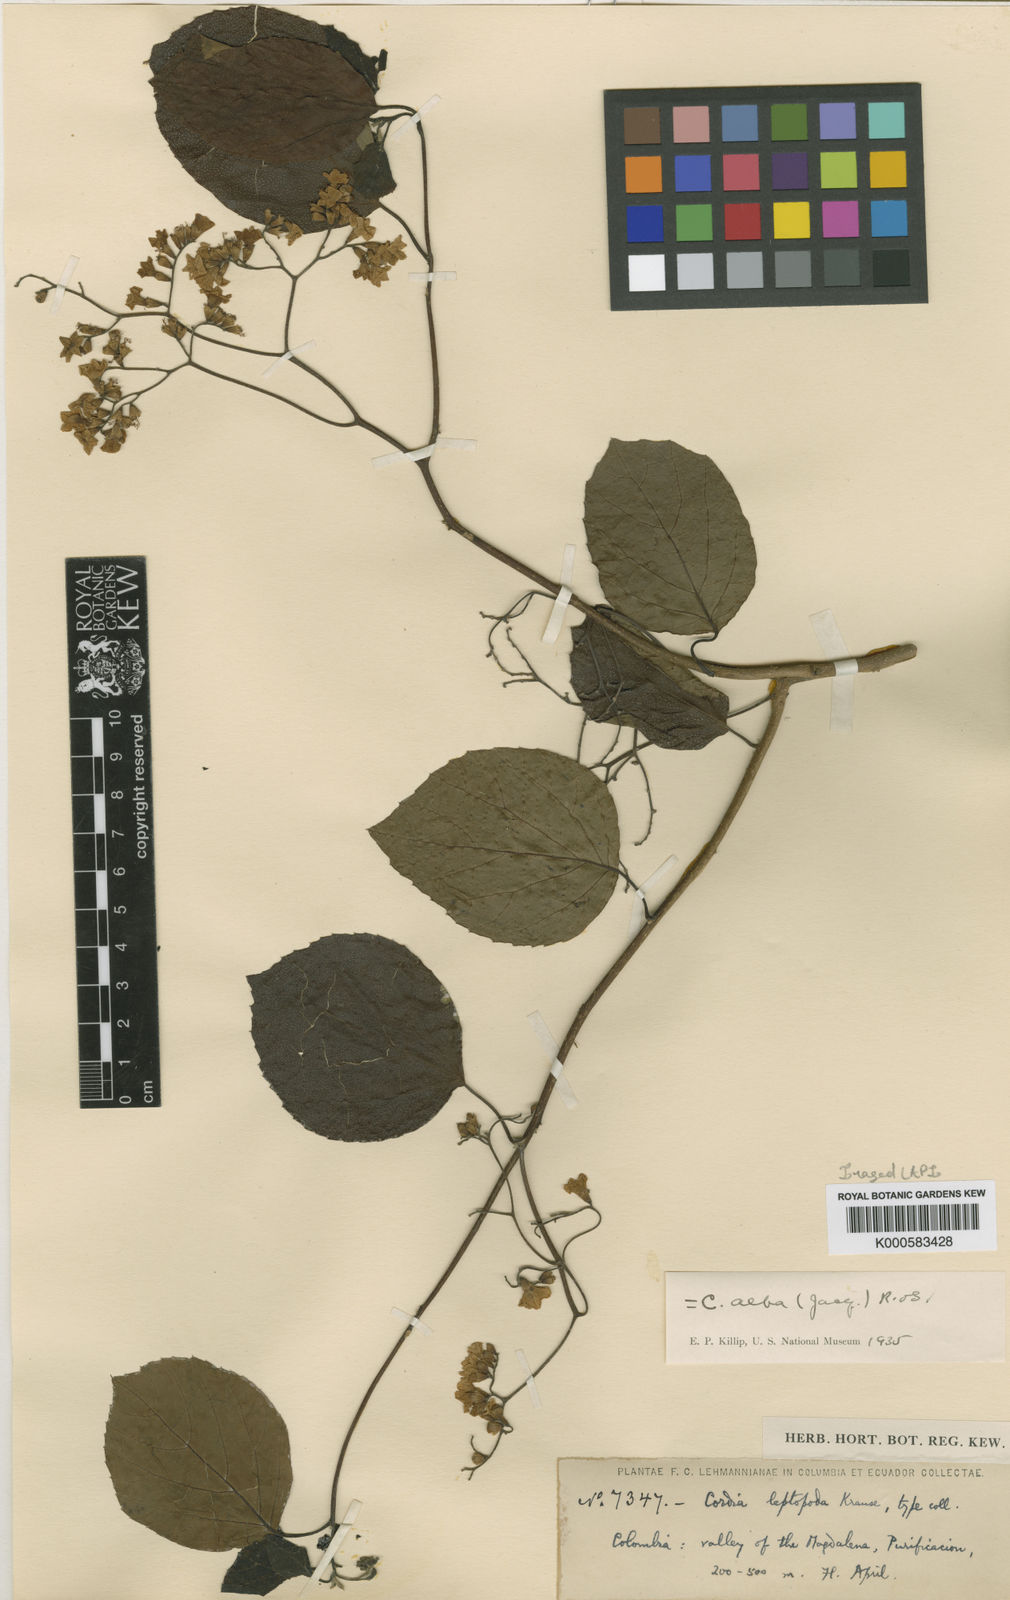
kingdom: Plantae
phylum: Tracheophyta
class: Magnoliopsida
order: Boraginales
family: Cordiaceae
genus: Cordia
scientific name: Cordia dentata
